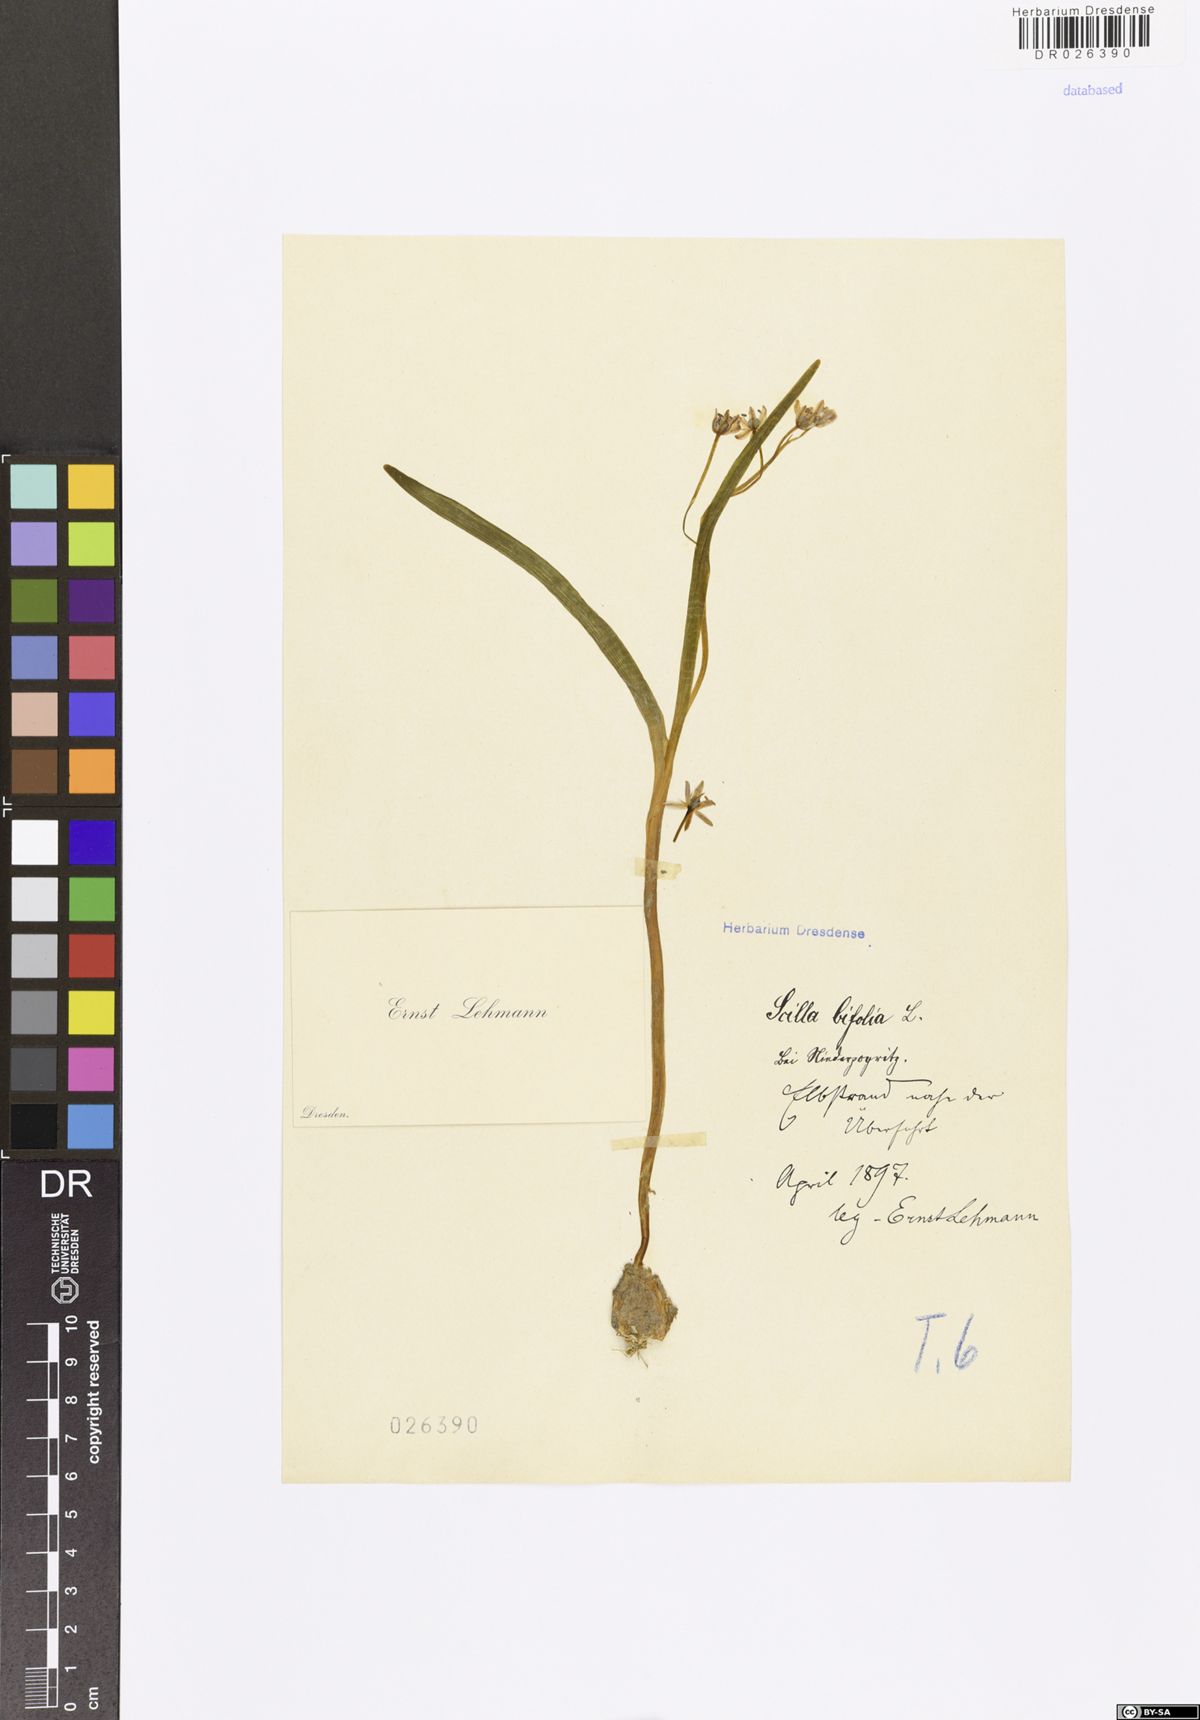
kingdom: Plantae
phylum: Tracheophyta
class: Liliopsida
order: Asparagales
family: Asparagaceae
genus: Scilla
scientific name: Scilla vindobonensis
